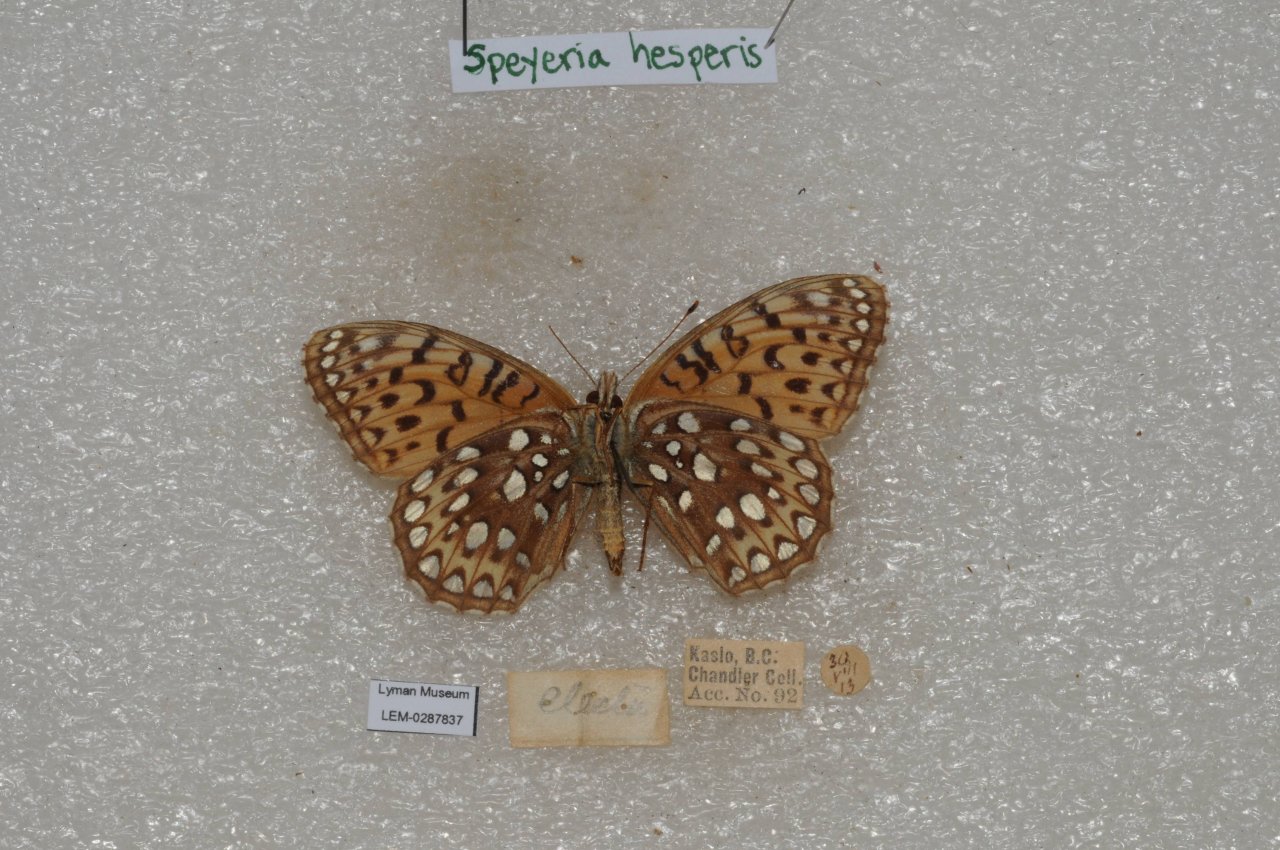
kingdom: Animalia
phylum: Arthropoda
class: Insecta
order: Lepidoptera
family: Nymphalidae
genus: Speyeria
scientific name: Speyeria atlantis
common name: Northwestern Fritillary
